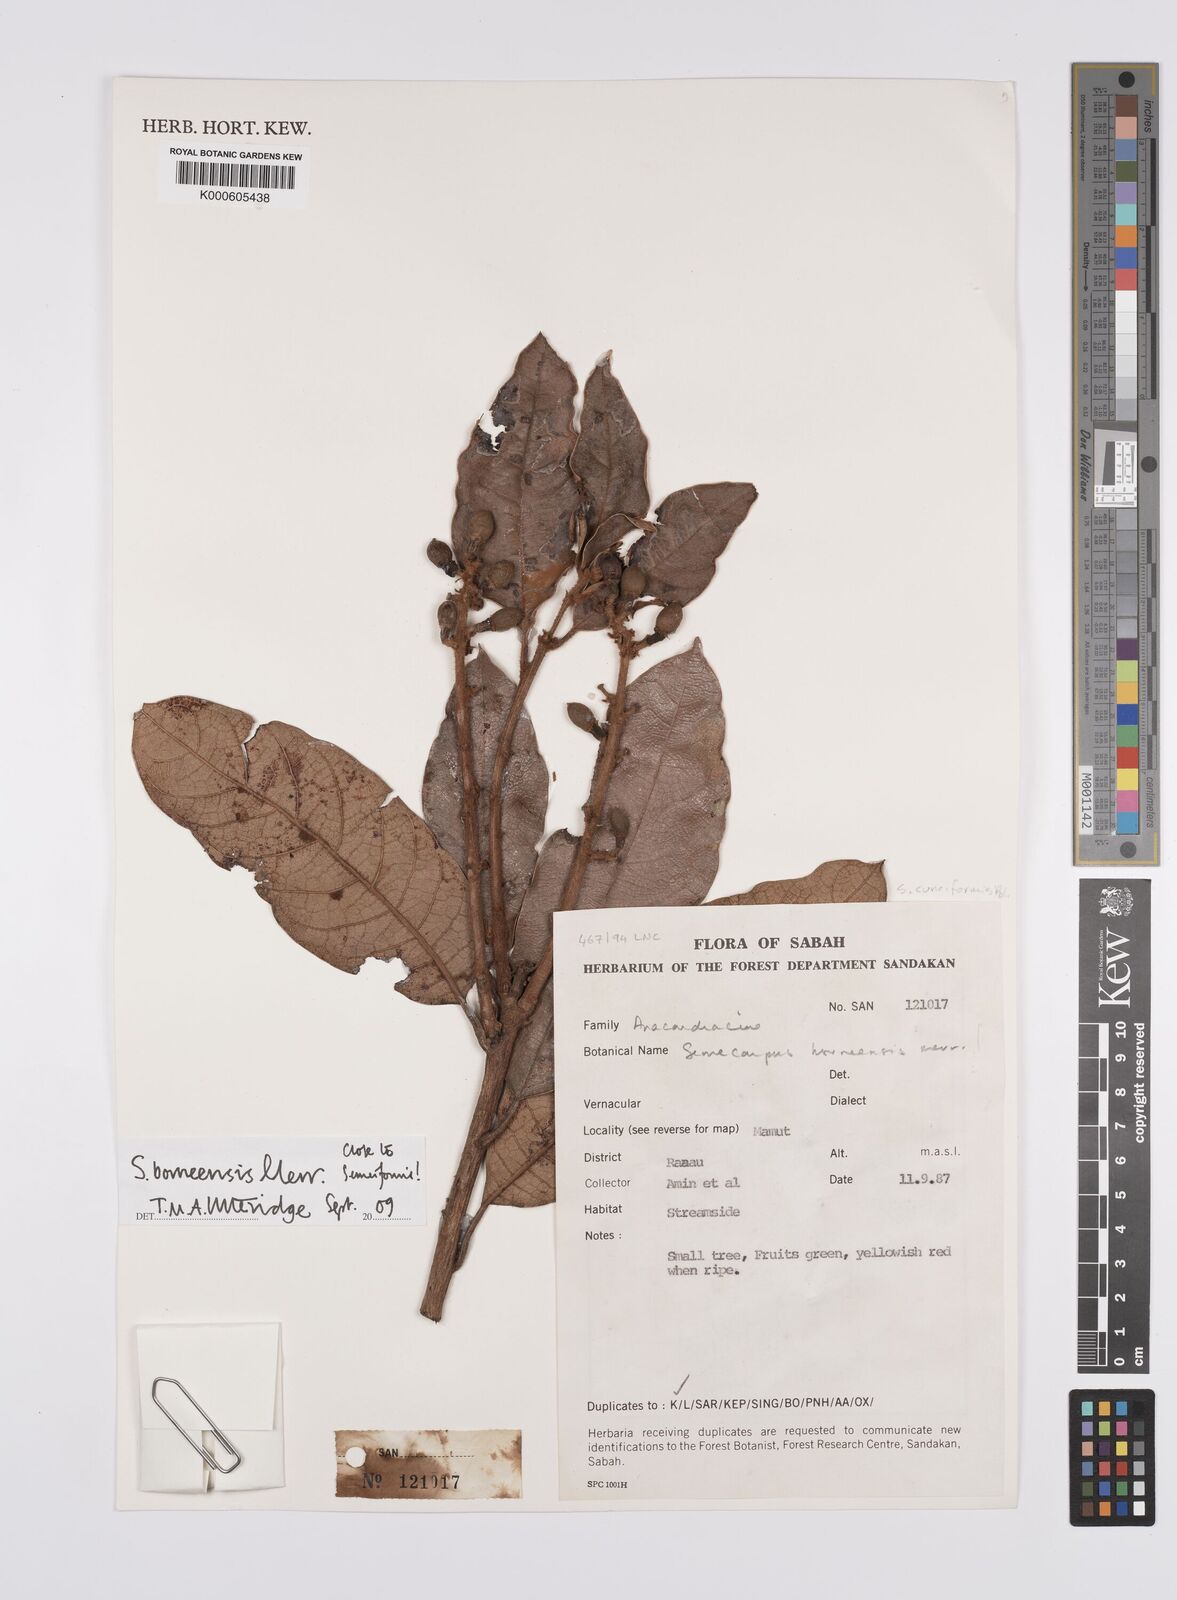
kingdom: Plantae
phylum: Tracheophyta
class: Magnoliopsida
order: Sapindales
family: Anacardiaceae
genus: Semecarpus
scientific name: Semecarpus borneensis
